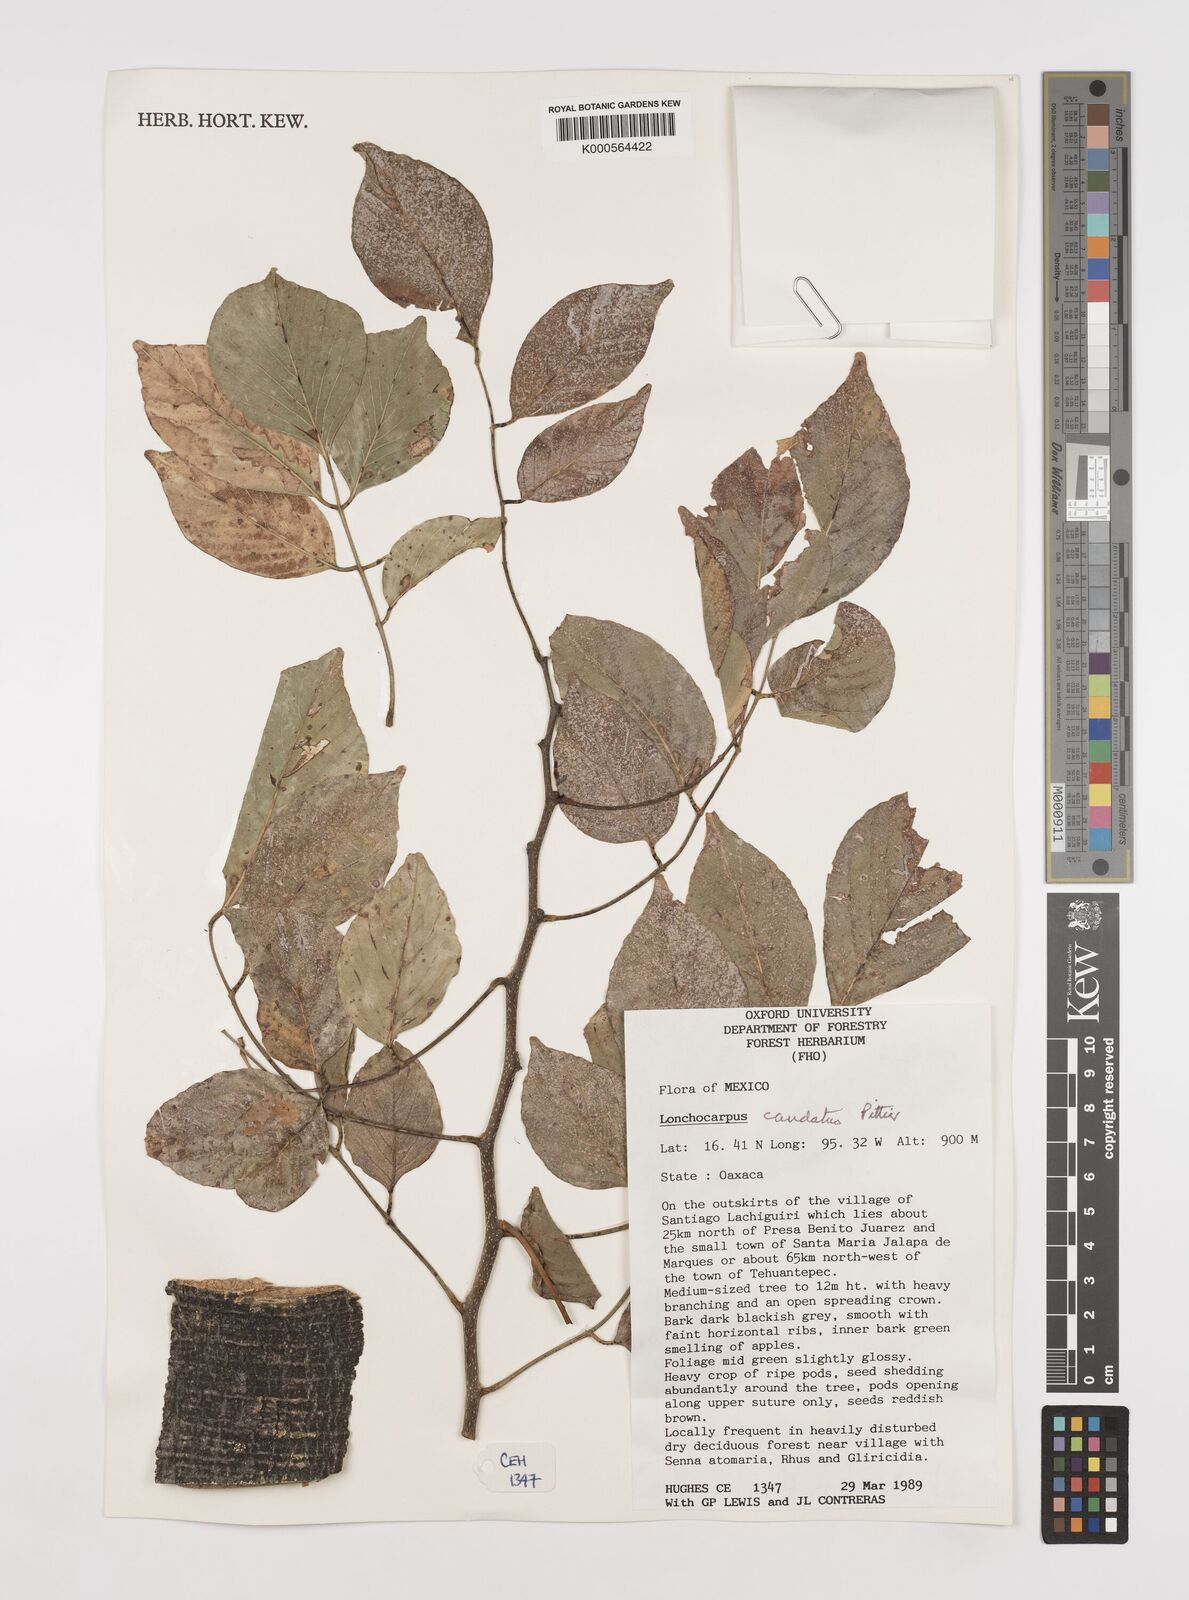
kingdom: Plantae
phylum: Tracheophyta
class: Magnoliopsida
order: Fabales
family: Fabaceae
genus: Lonchocarpus
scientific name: Lonchocarpus caudatus
